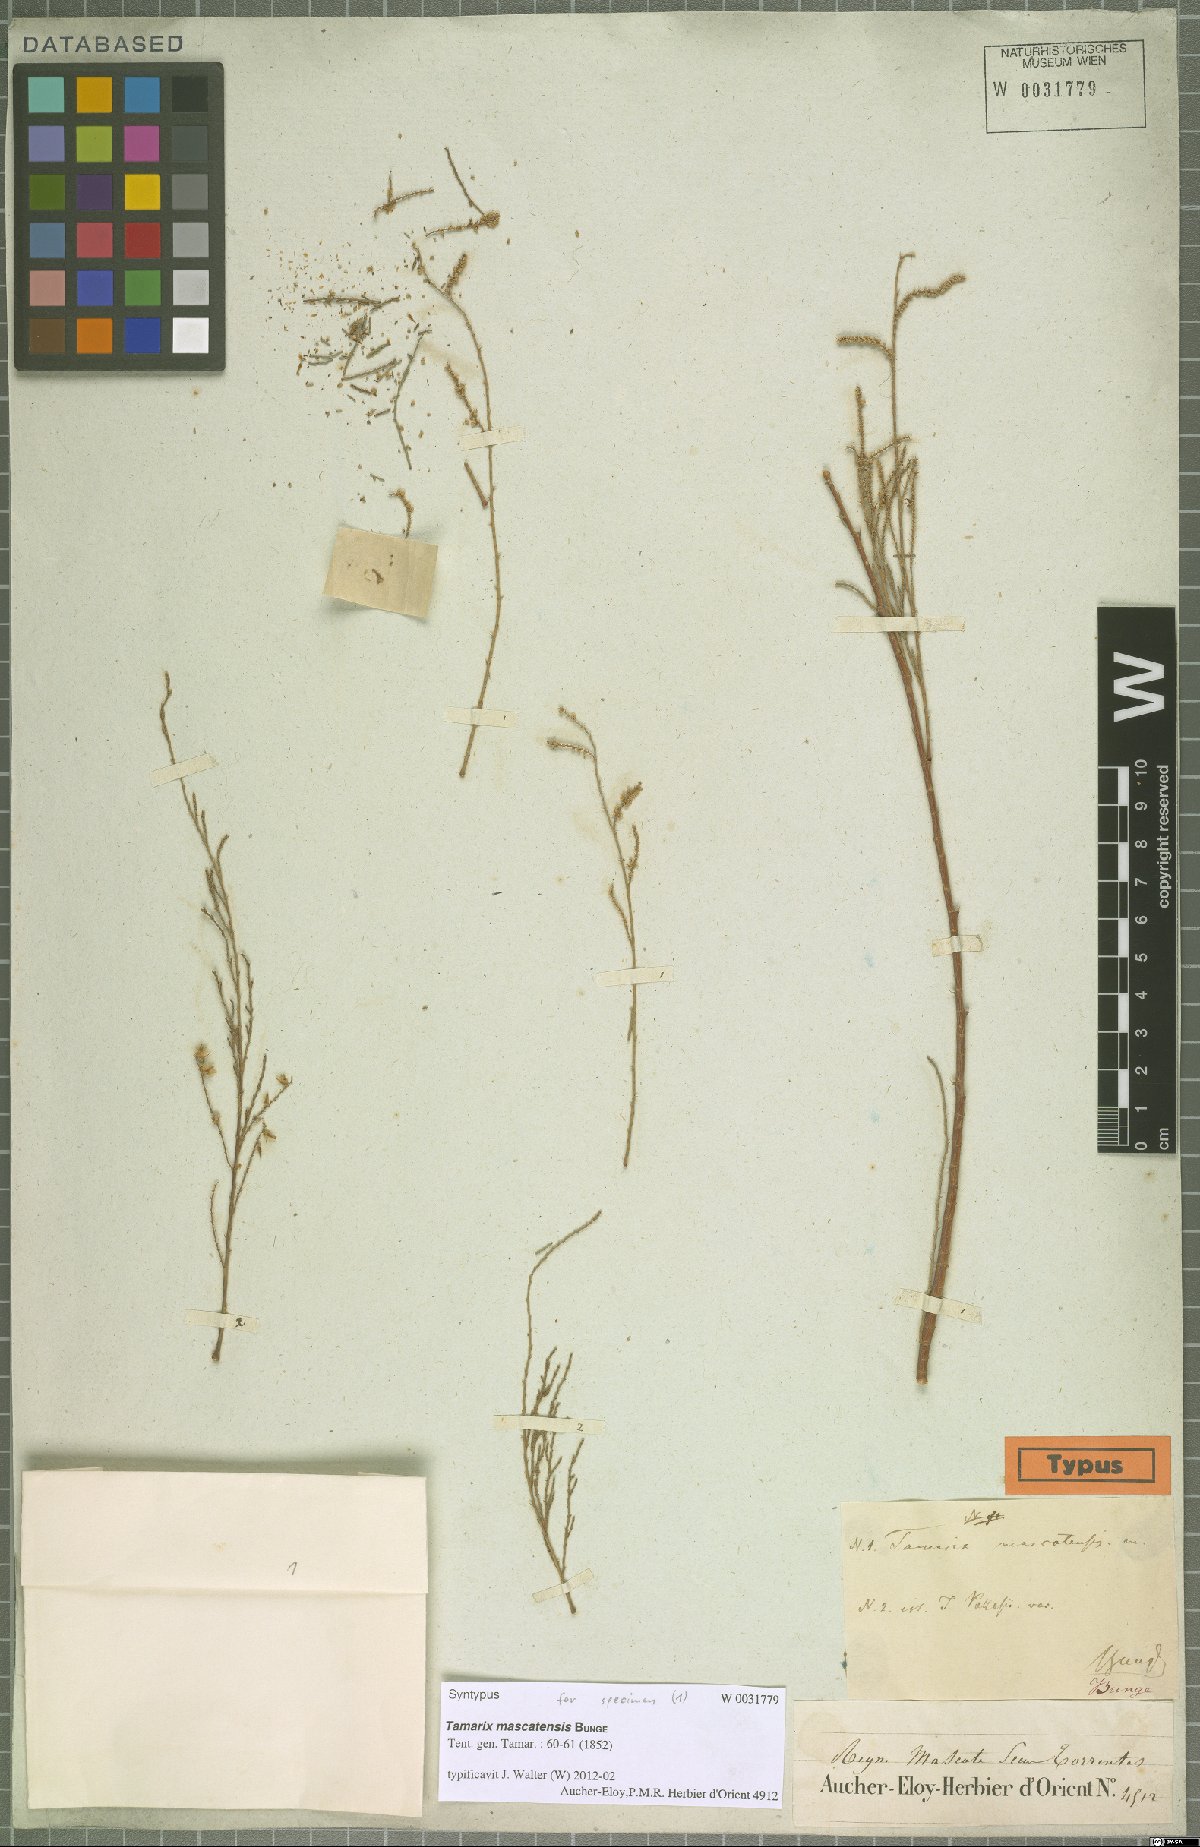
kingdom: Plantae
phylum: Tracheophyta
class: Magnoliopsida
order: Caryophyllales
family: Tamaricaceae
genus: Tamarix
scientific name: Tamarix mascatensis
